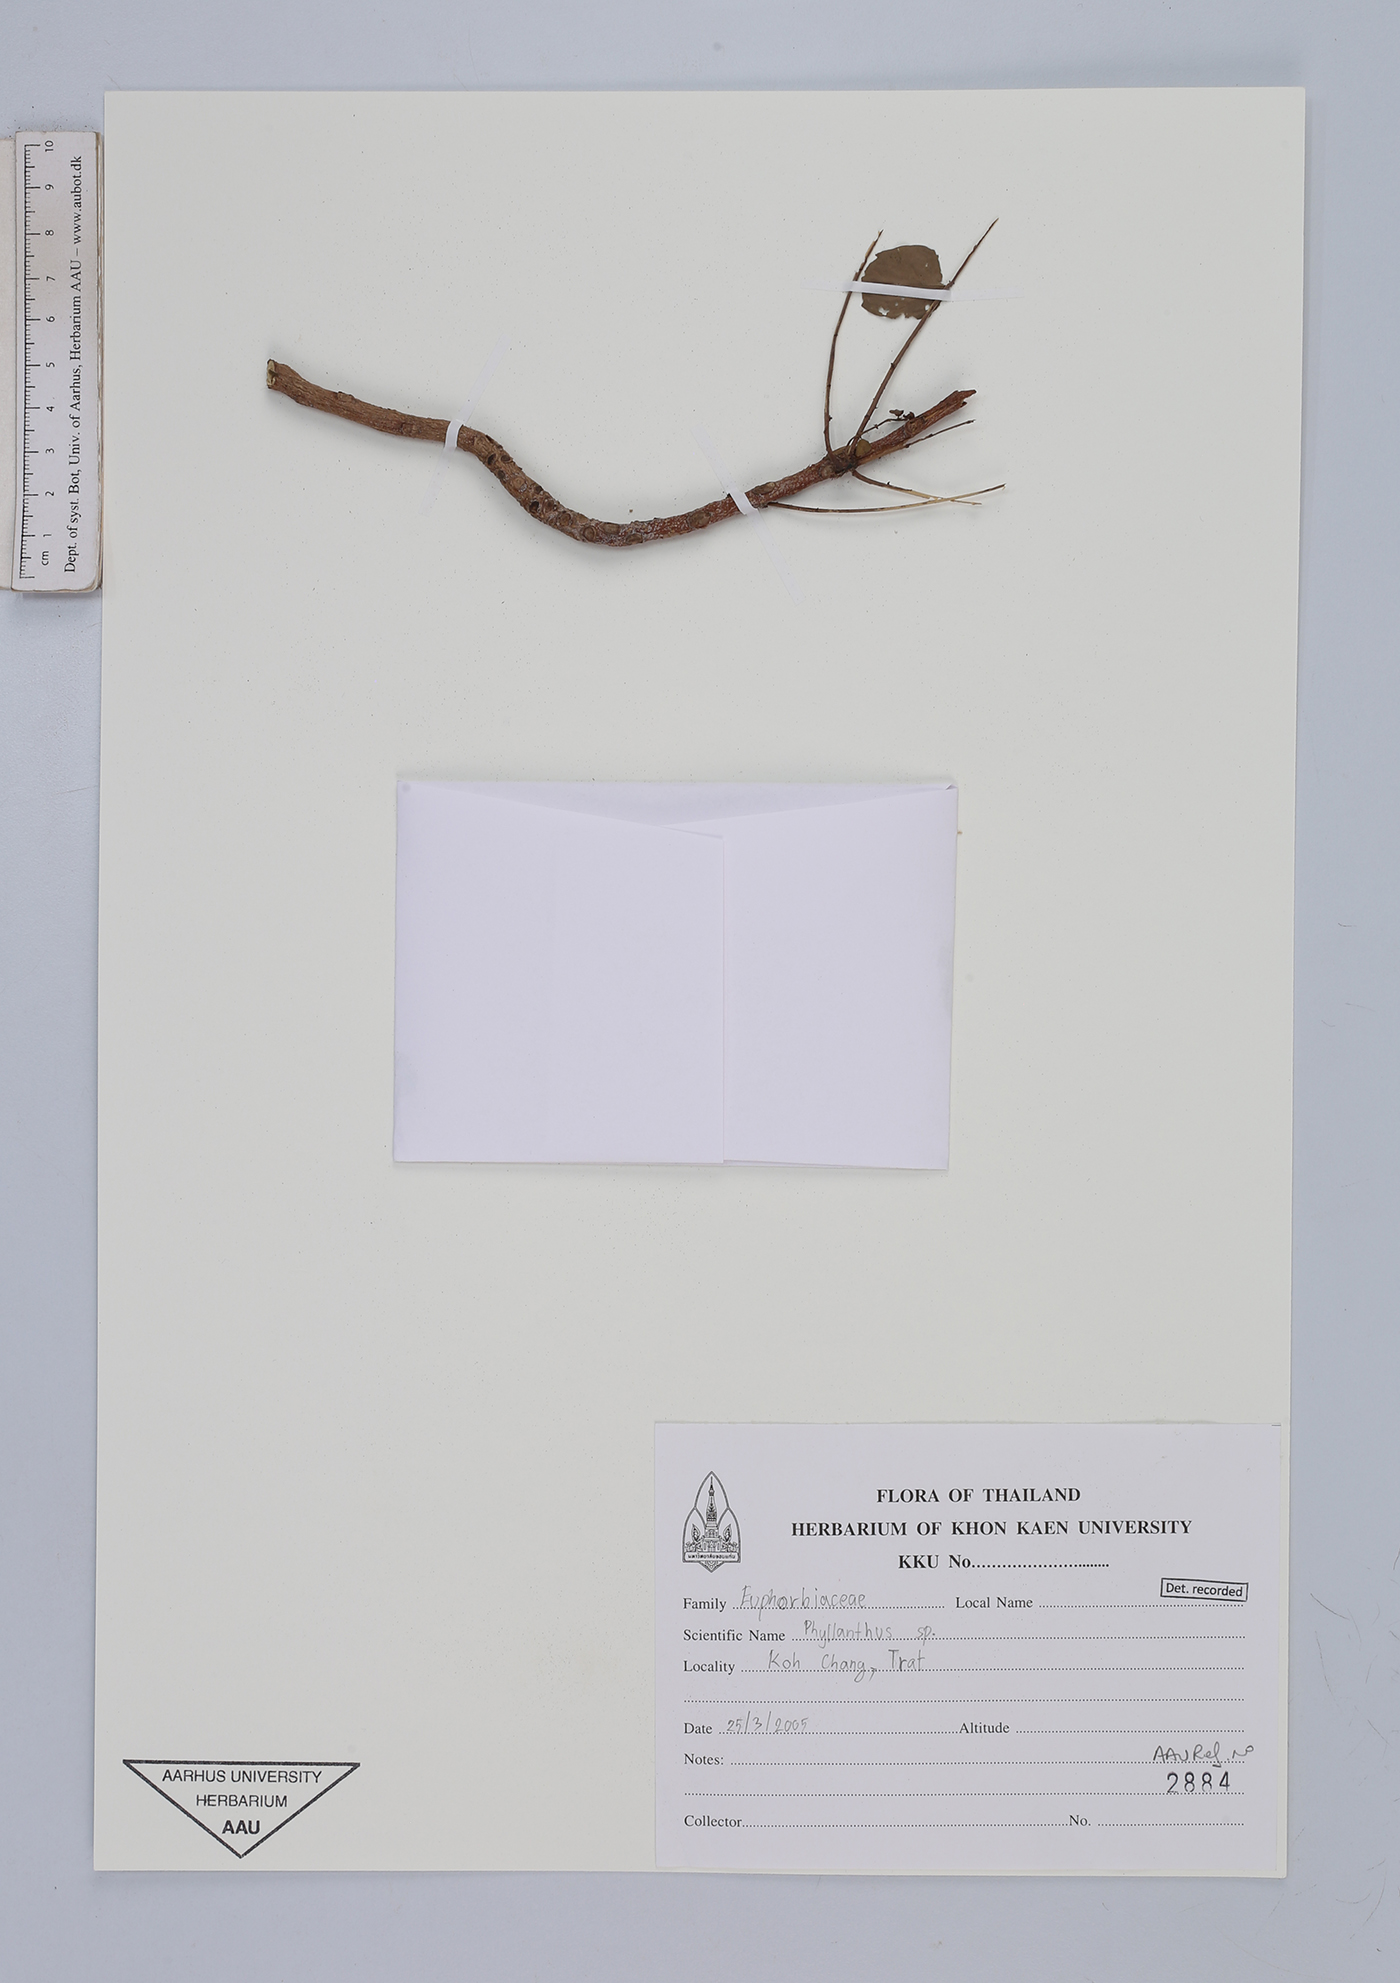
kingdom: Plantae
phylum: Tracheophyta
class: Magnoliopsida
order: Malpighiales
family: Euphorbiaceae
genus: Phyllanthos
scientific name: Phyllanthos
